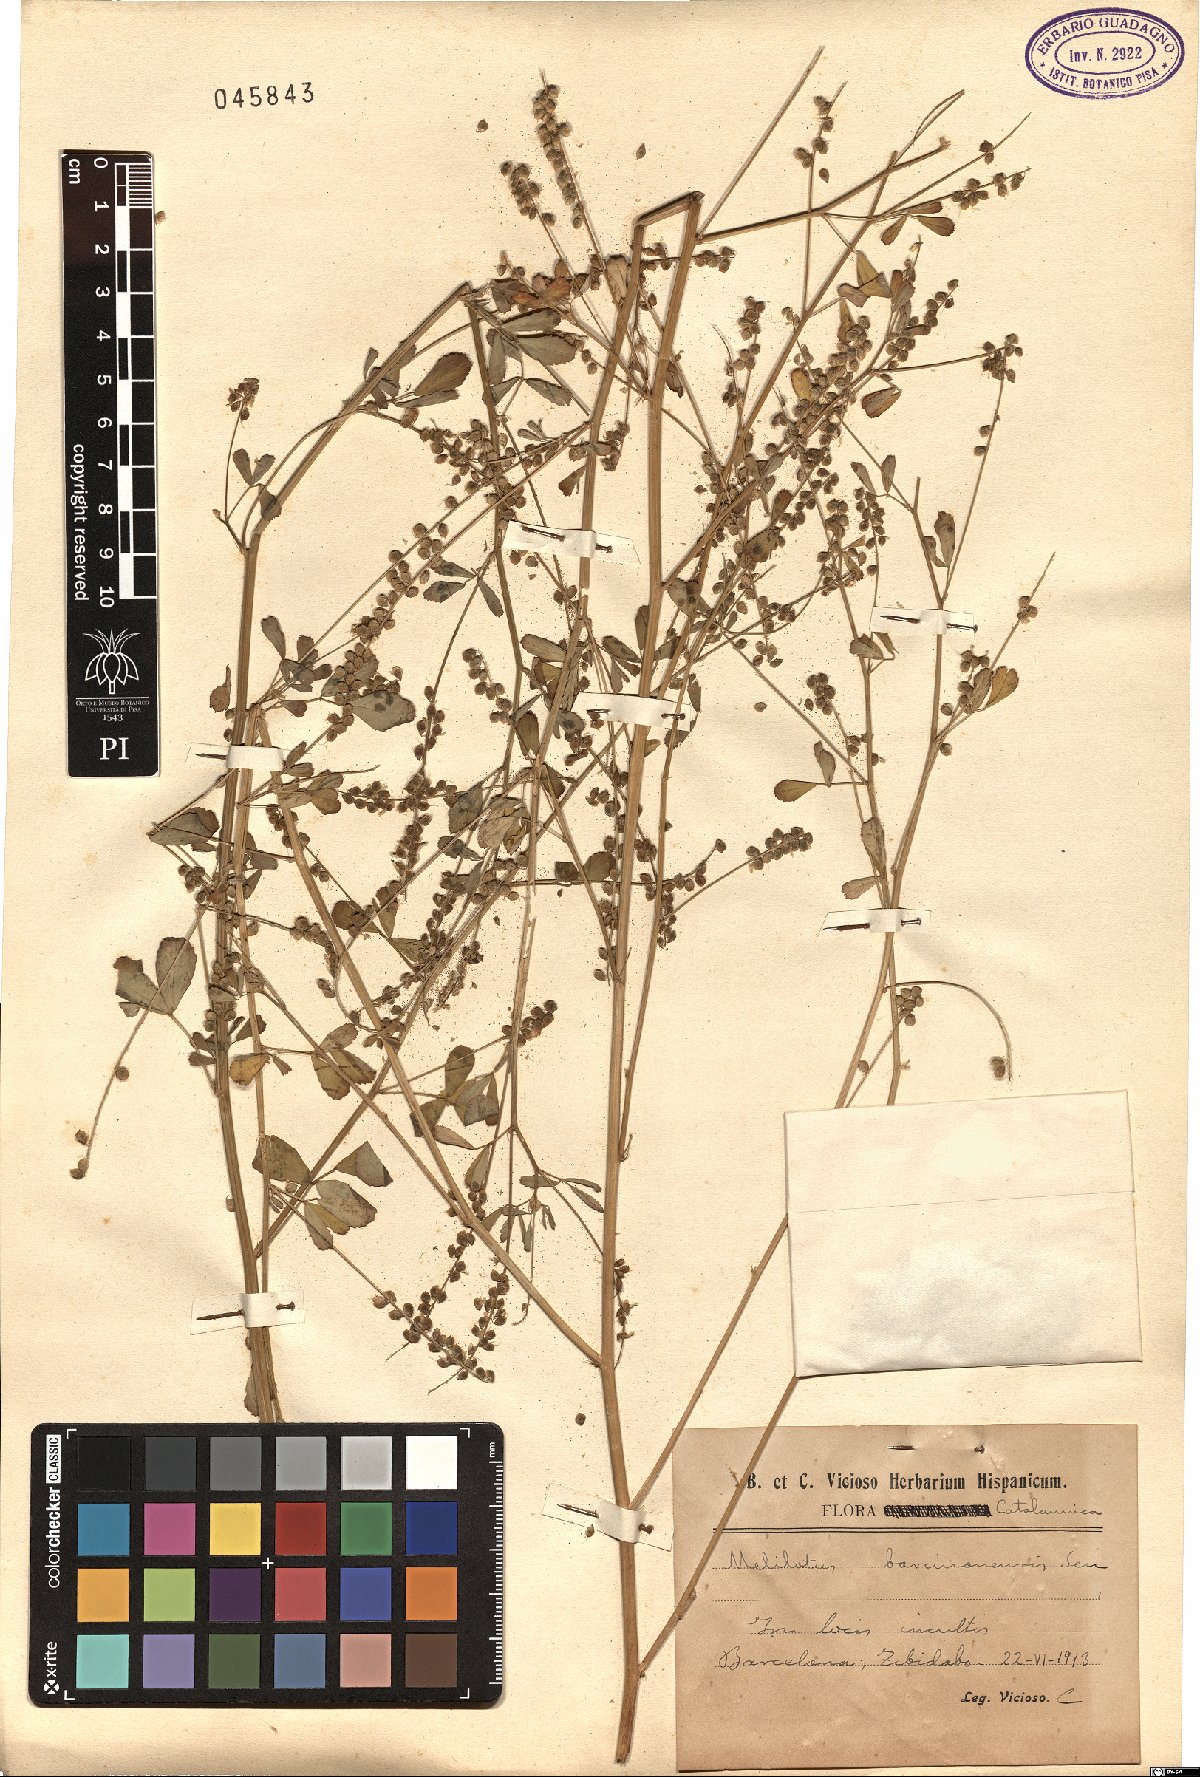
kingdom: Plantae
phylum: Tracheophyta
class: Magnoliopsida
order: Fabales
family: Fabaceae
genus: Melilotus
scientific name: Melilotus elegans
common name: Elegant sweet-clover
